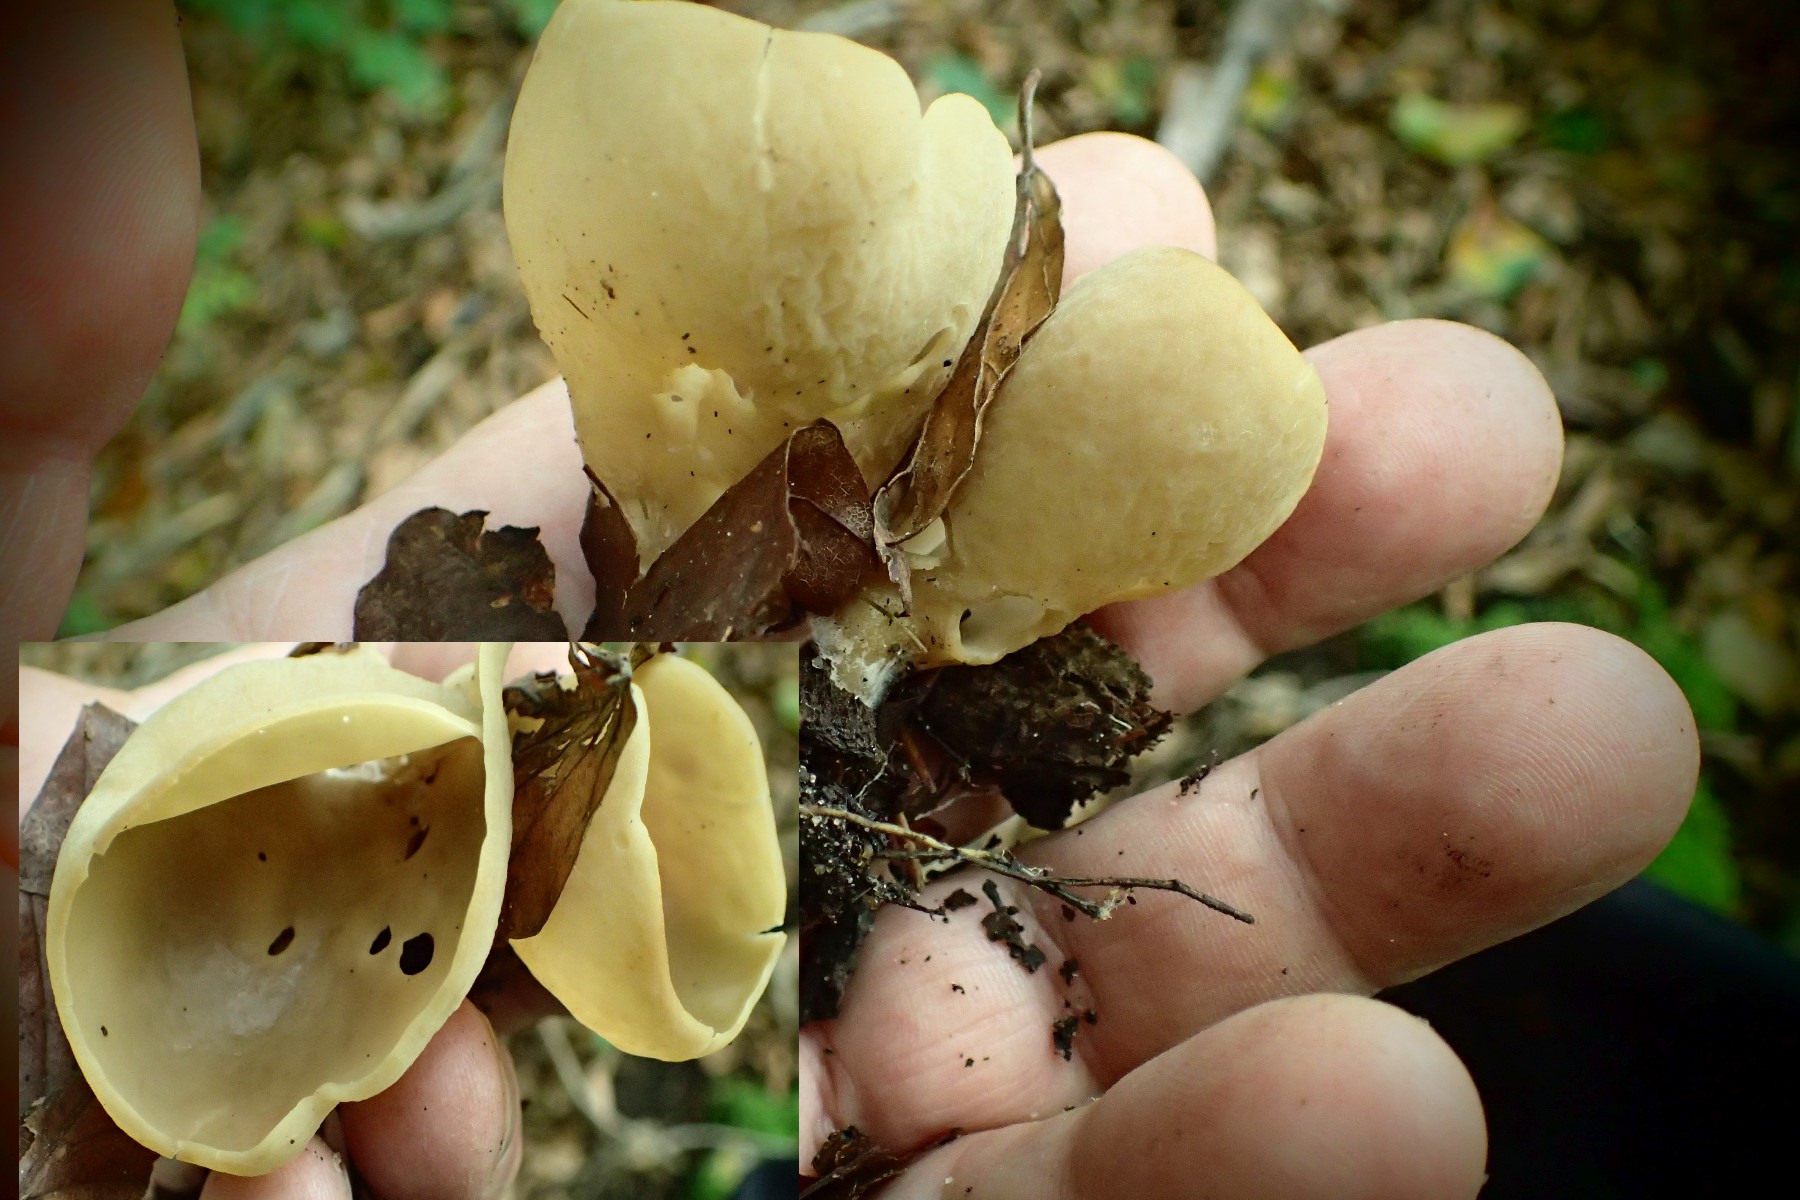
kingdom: Fungi
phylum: Ascomycota
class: Pezizomycetes
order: Pezizales
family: Otideaceae
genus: Otidea
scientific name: Otidea
